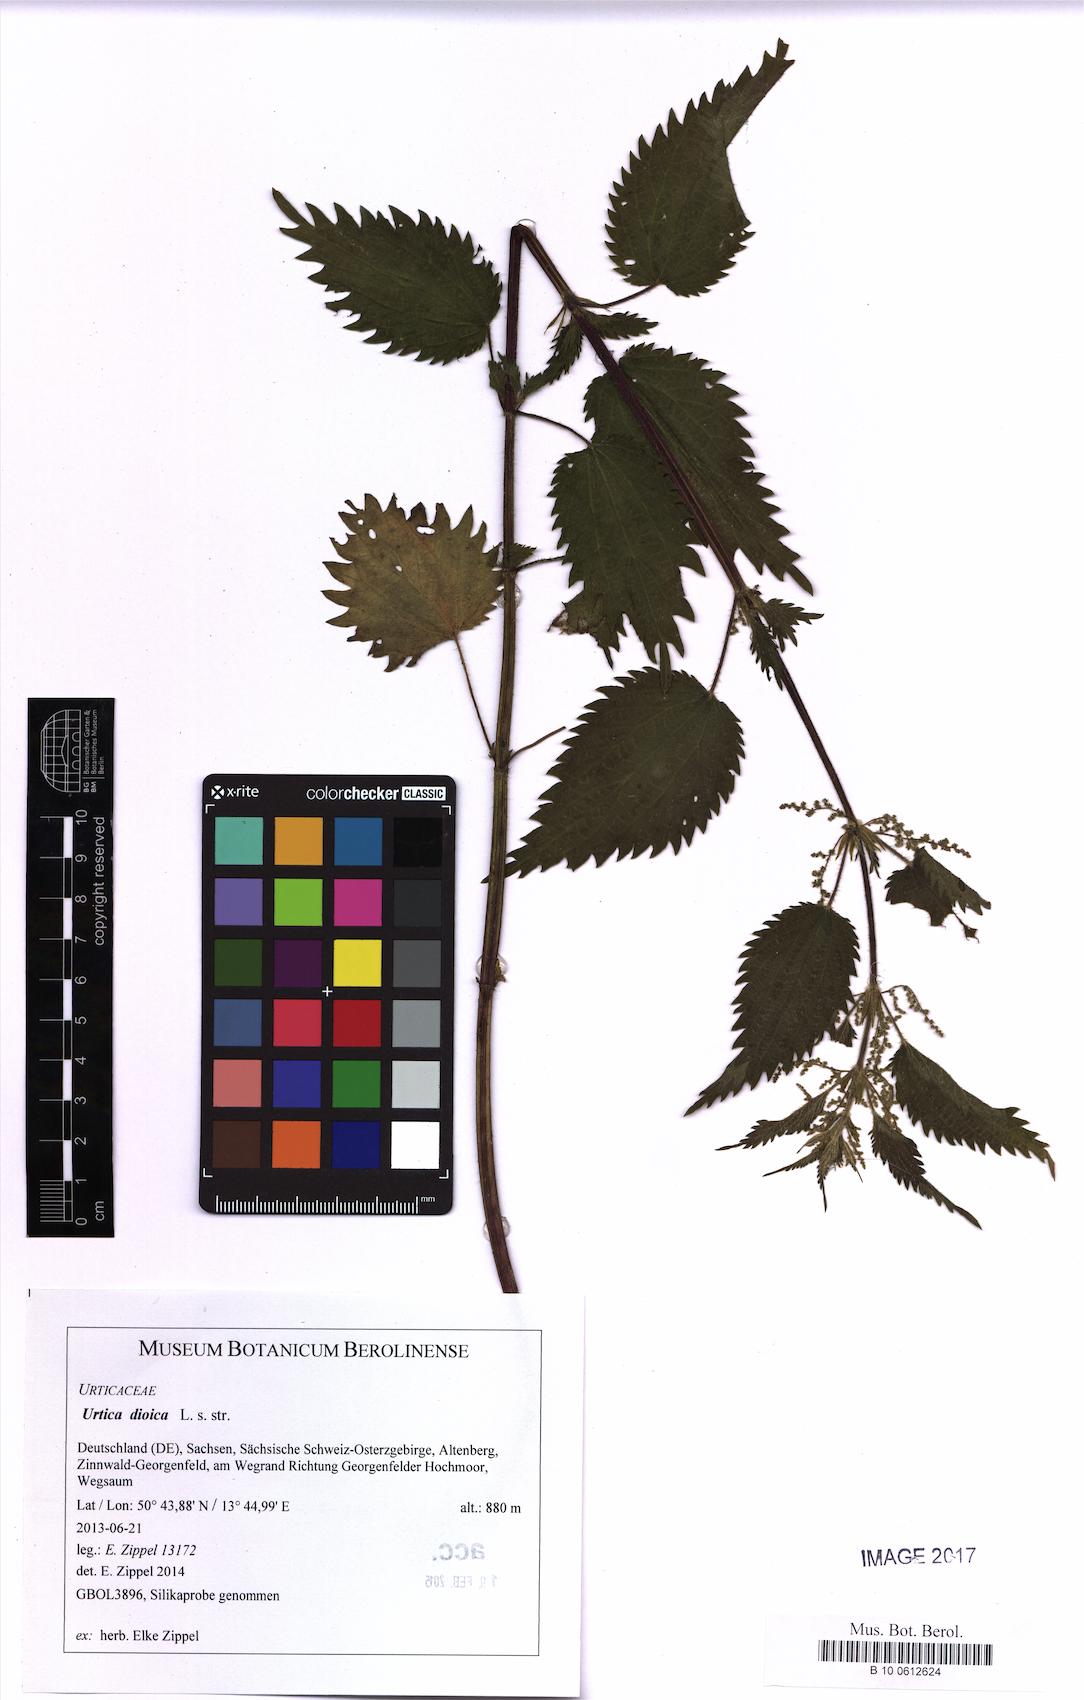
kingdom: Plantae
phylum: Tracheophyta
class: Magnoliopsida
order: Rosales
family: Urticaceae
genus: Urtica
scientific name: Urtica dioica
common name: Common nettle
